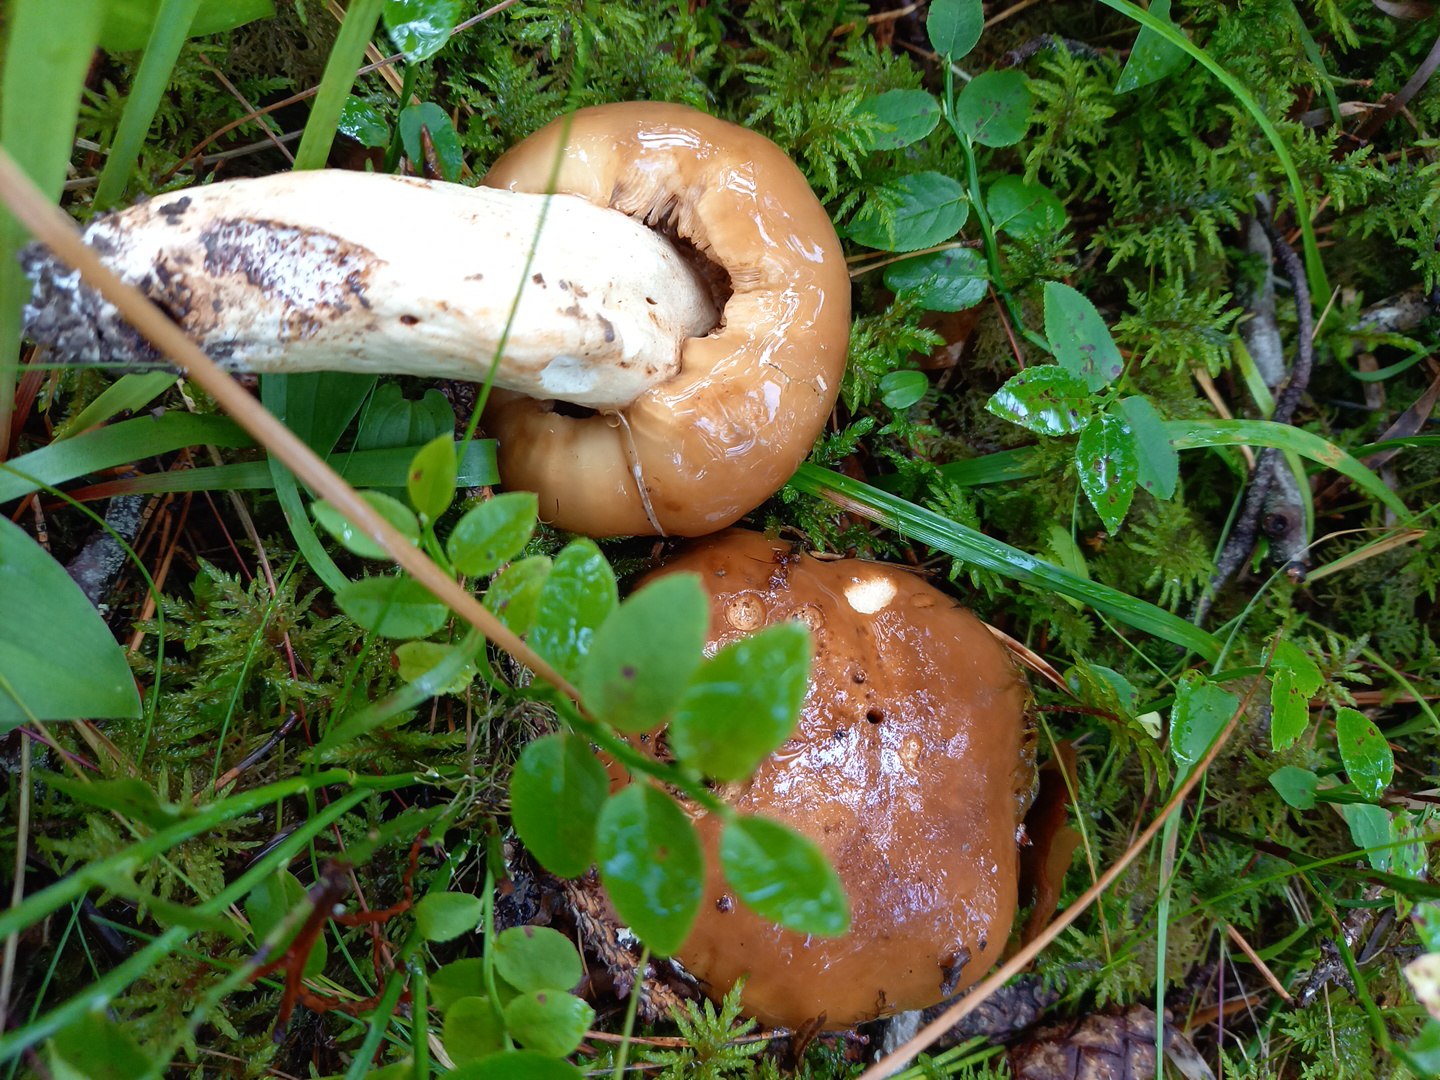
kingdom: Fungi
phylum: Basidiomycota
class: Agaricomycetes
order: Russulales
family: Russulaceae
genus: Russula
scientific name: Russula
